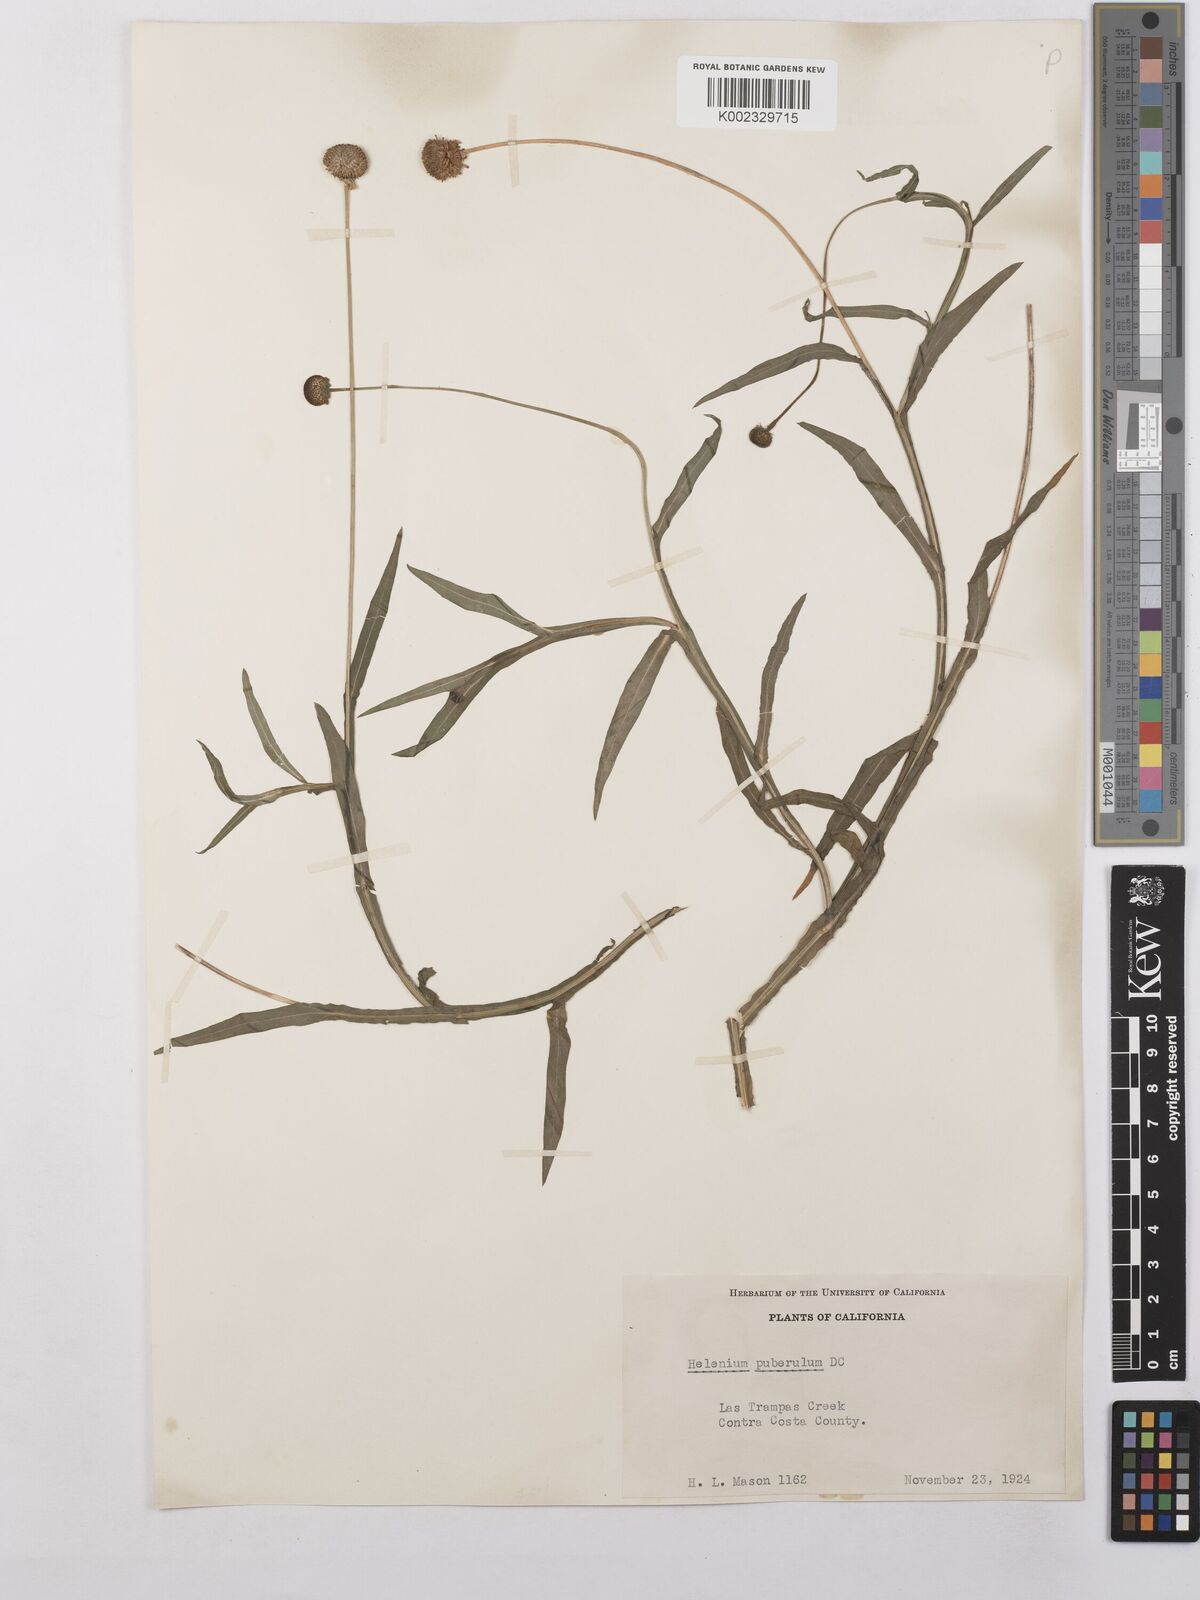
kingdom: Plantae
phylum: Tracheophyta
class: Magnoliopsida
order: Asterales
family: Asteraceae
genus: Helenium
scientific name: Helenium puberulum
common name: Sneezewort
